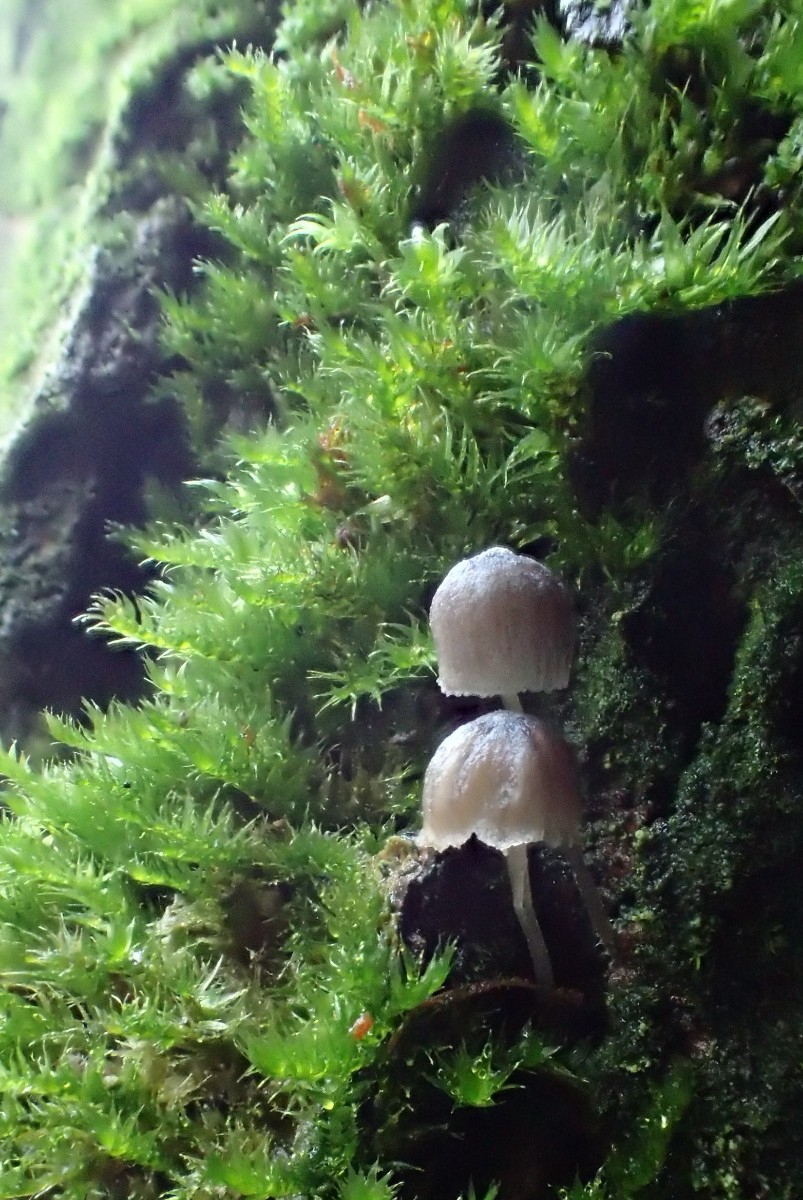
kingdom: Fungi
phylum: Basidiomycota
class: Agaricomycetes
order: Agaricales
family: Mycenaceae
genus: Mycena
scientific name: Mycena pseudocorticola
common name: gråblå bark-huesvamp
